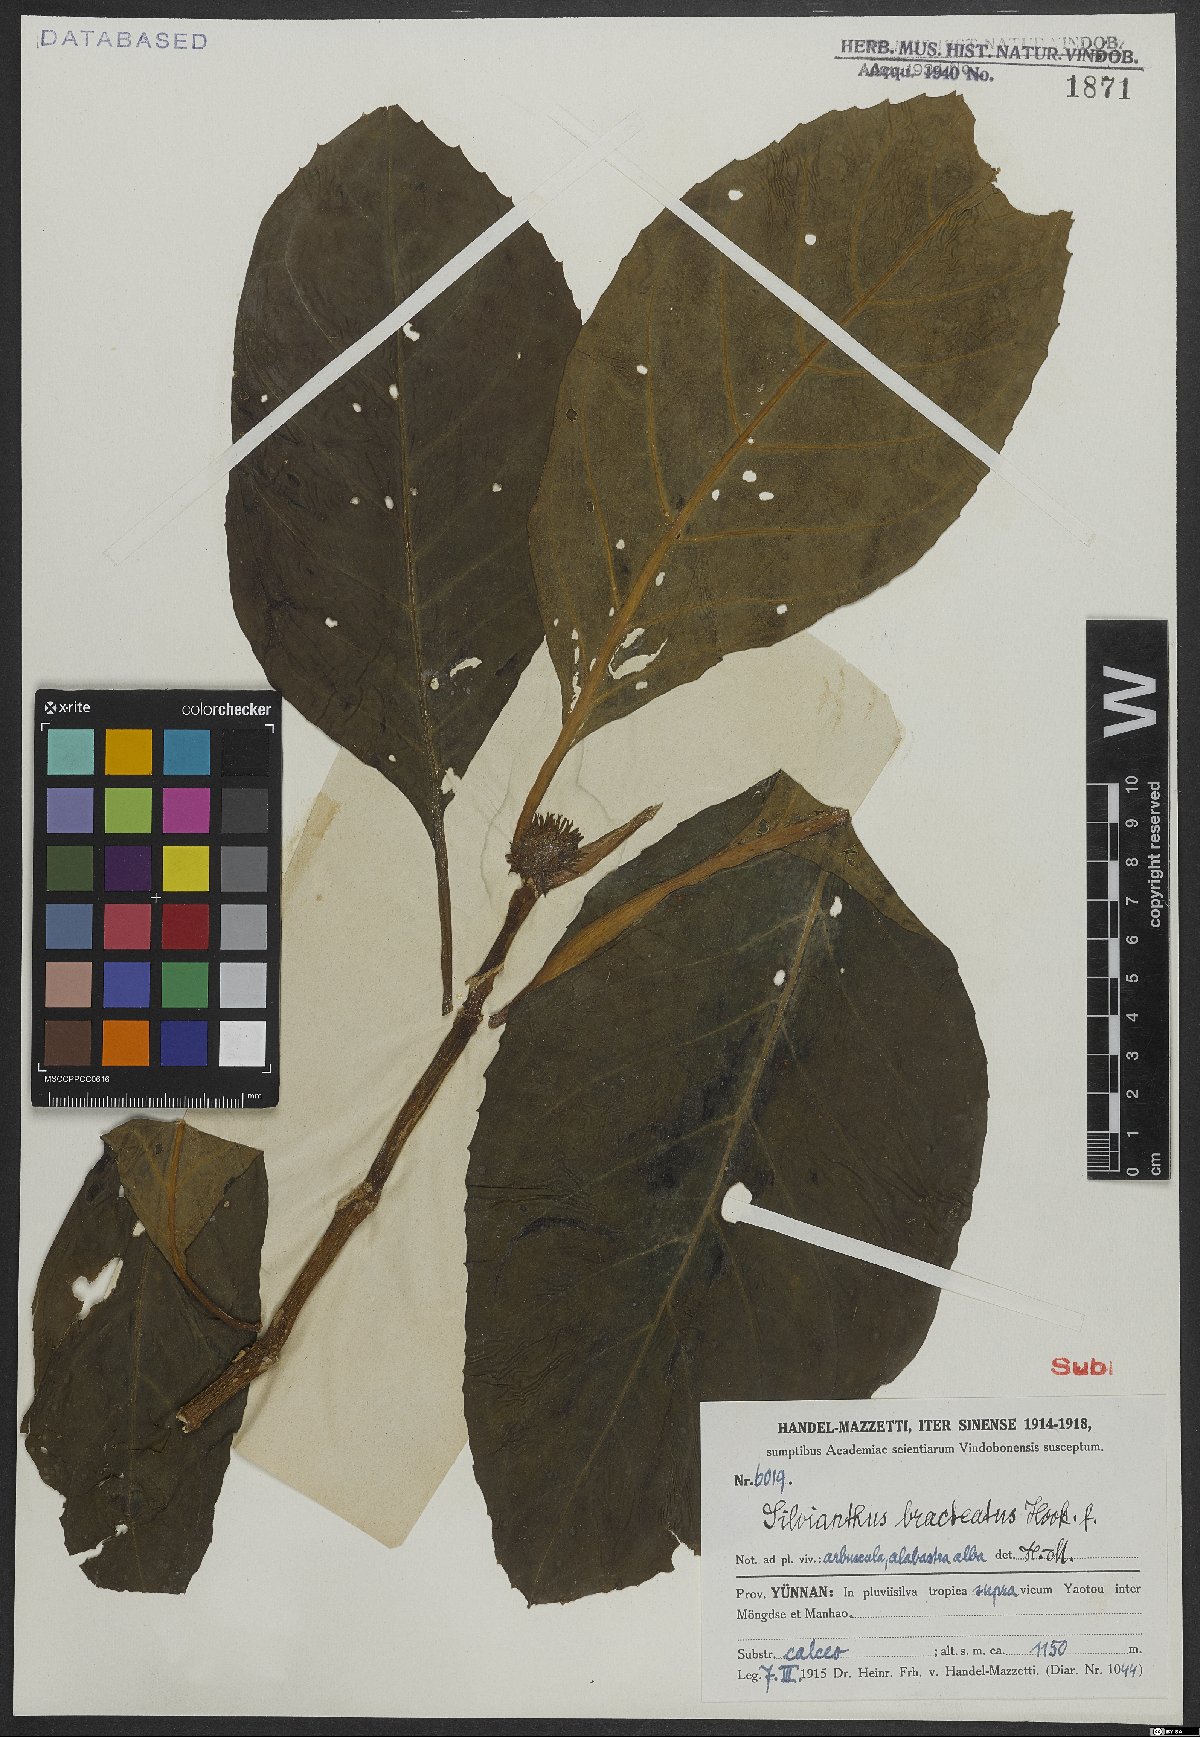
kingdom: Plantae
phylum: Tracheophyta
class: Magnoliopsida
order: Lamiales
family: Carlemanniaceae
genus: Silvianthus
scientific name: Silvianthus bracteatus
